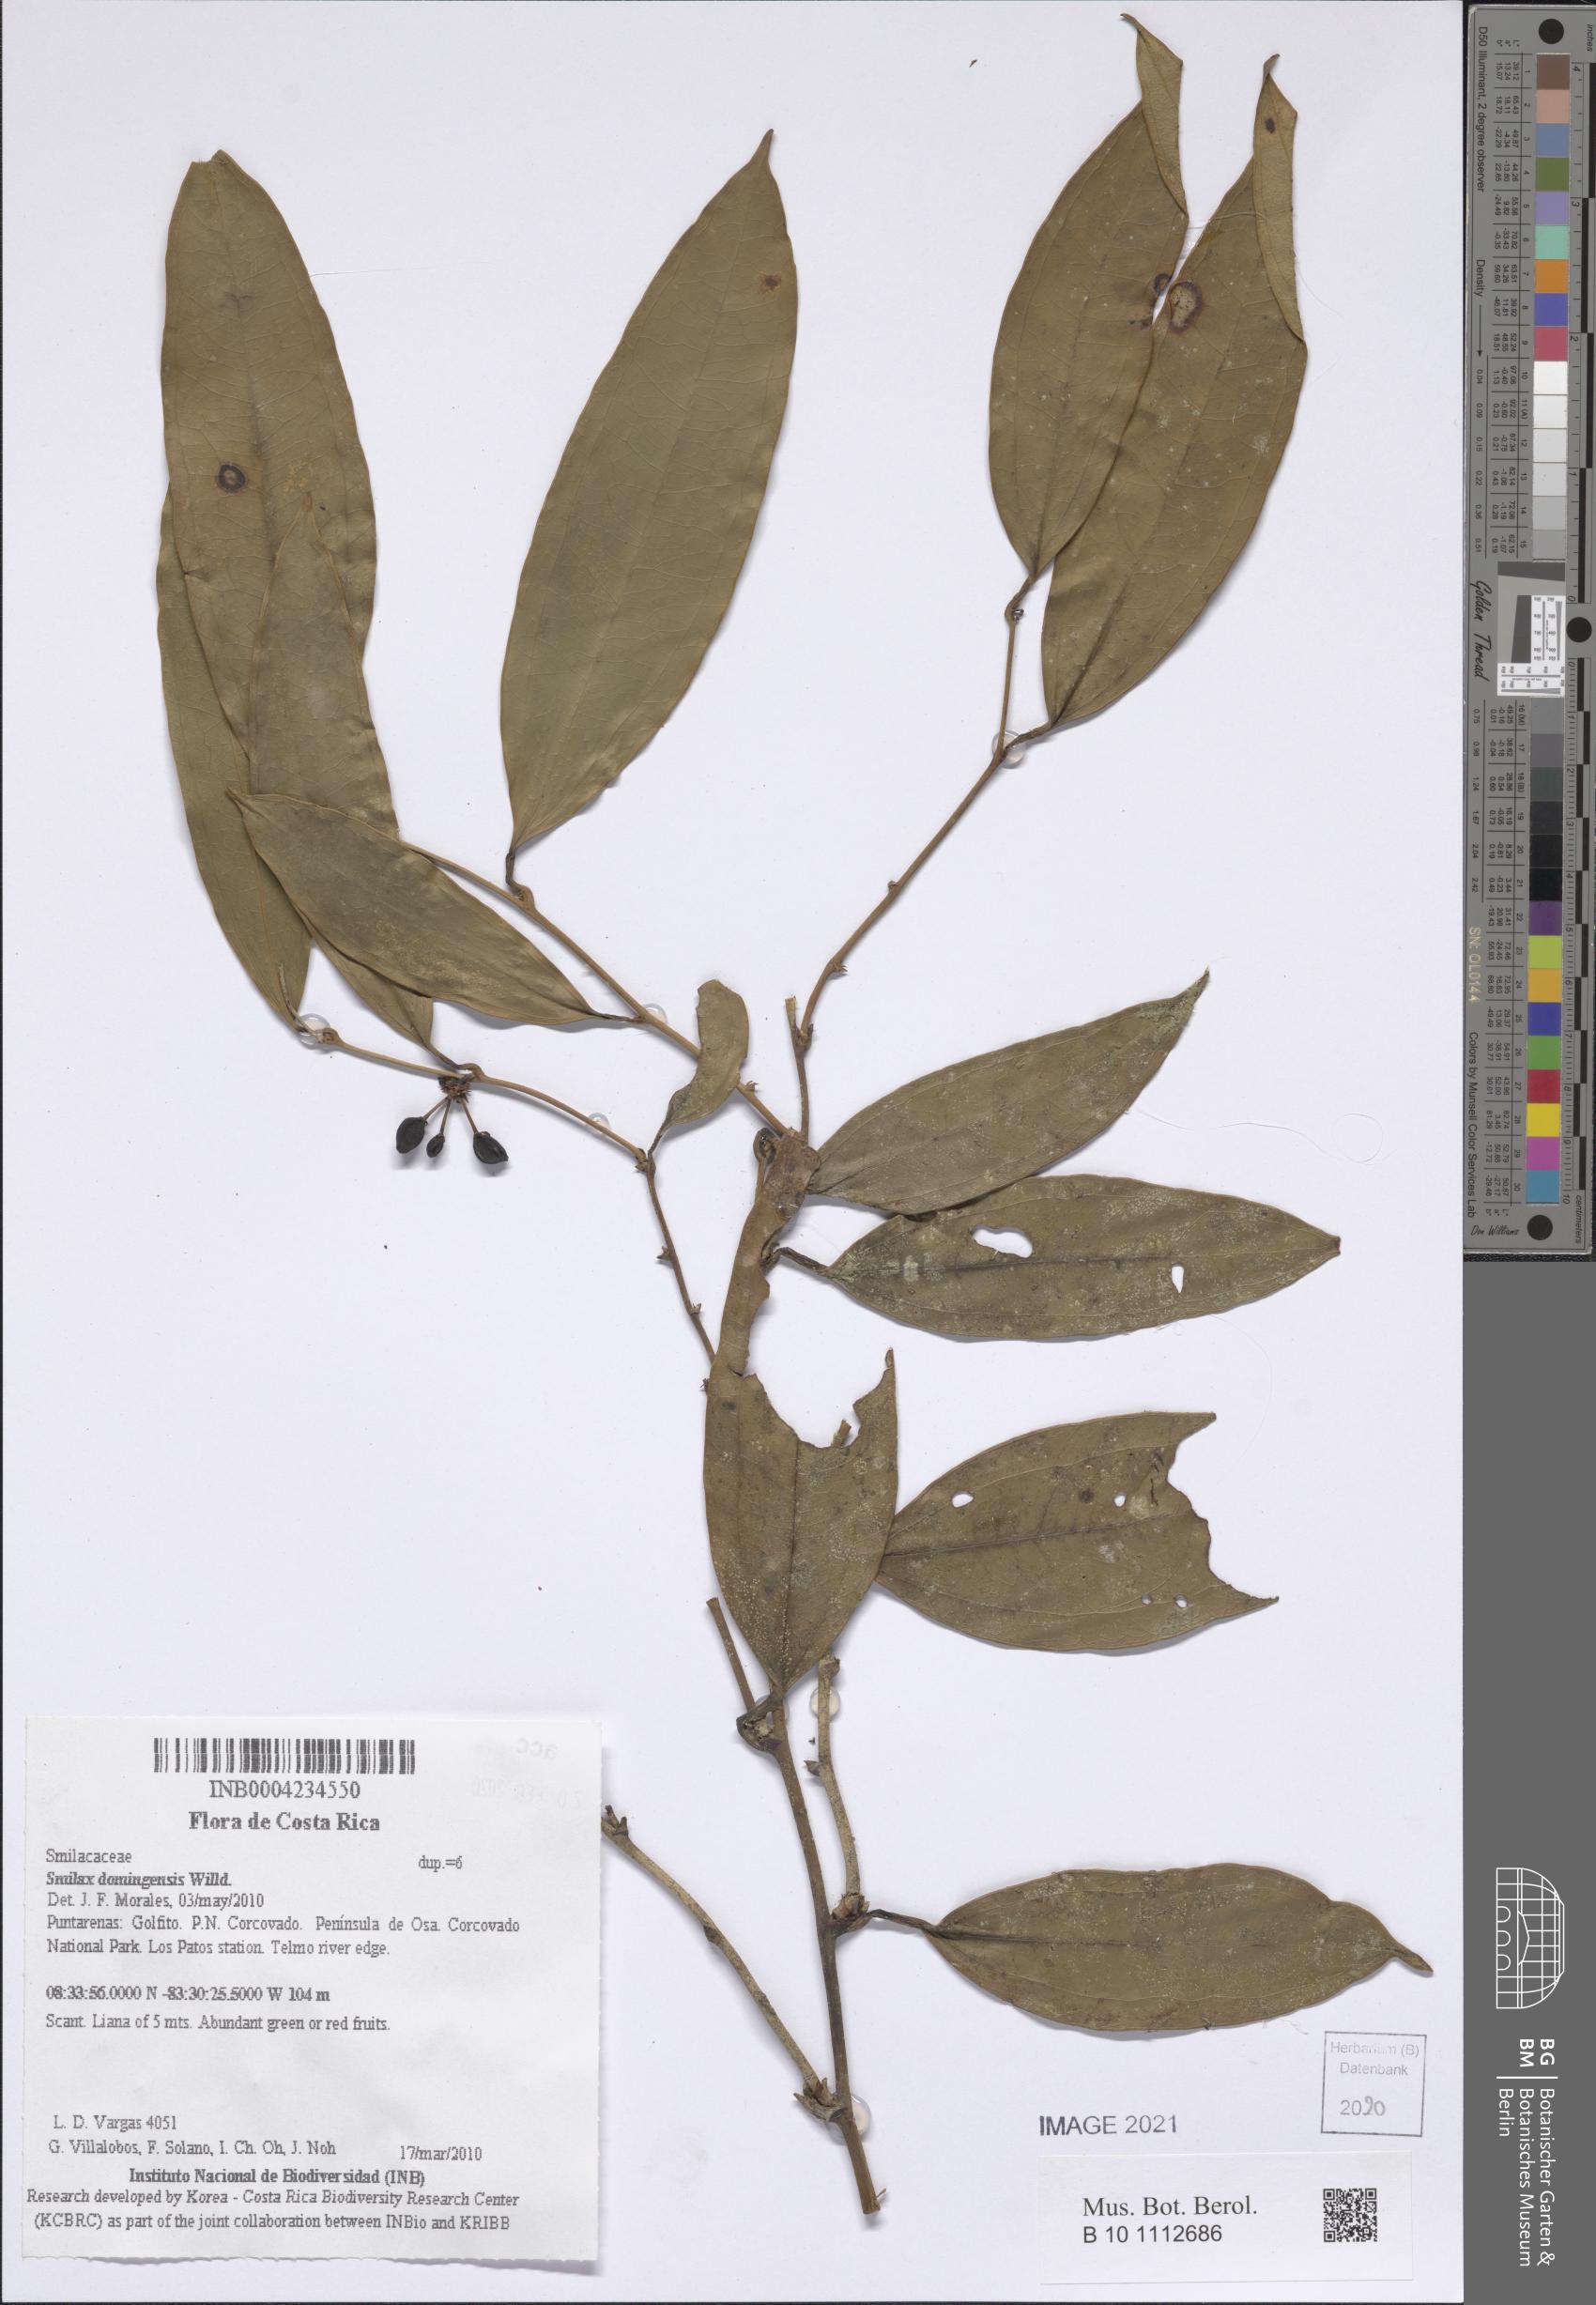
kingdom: Plantae
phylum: Tracheophyta
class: Liliopsida
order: Liliales
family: Smilacaceae
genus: Smilax
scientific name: Smilax domingensis
